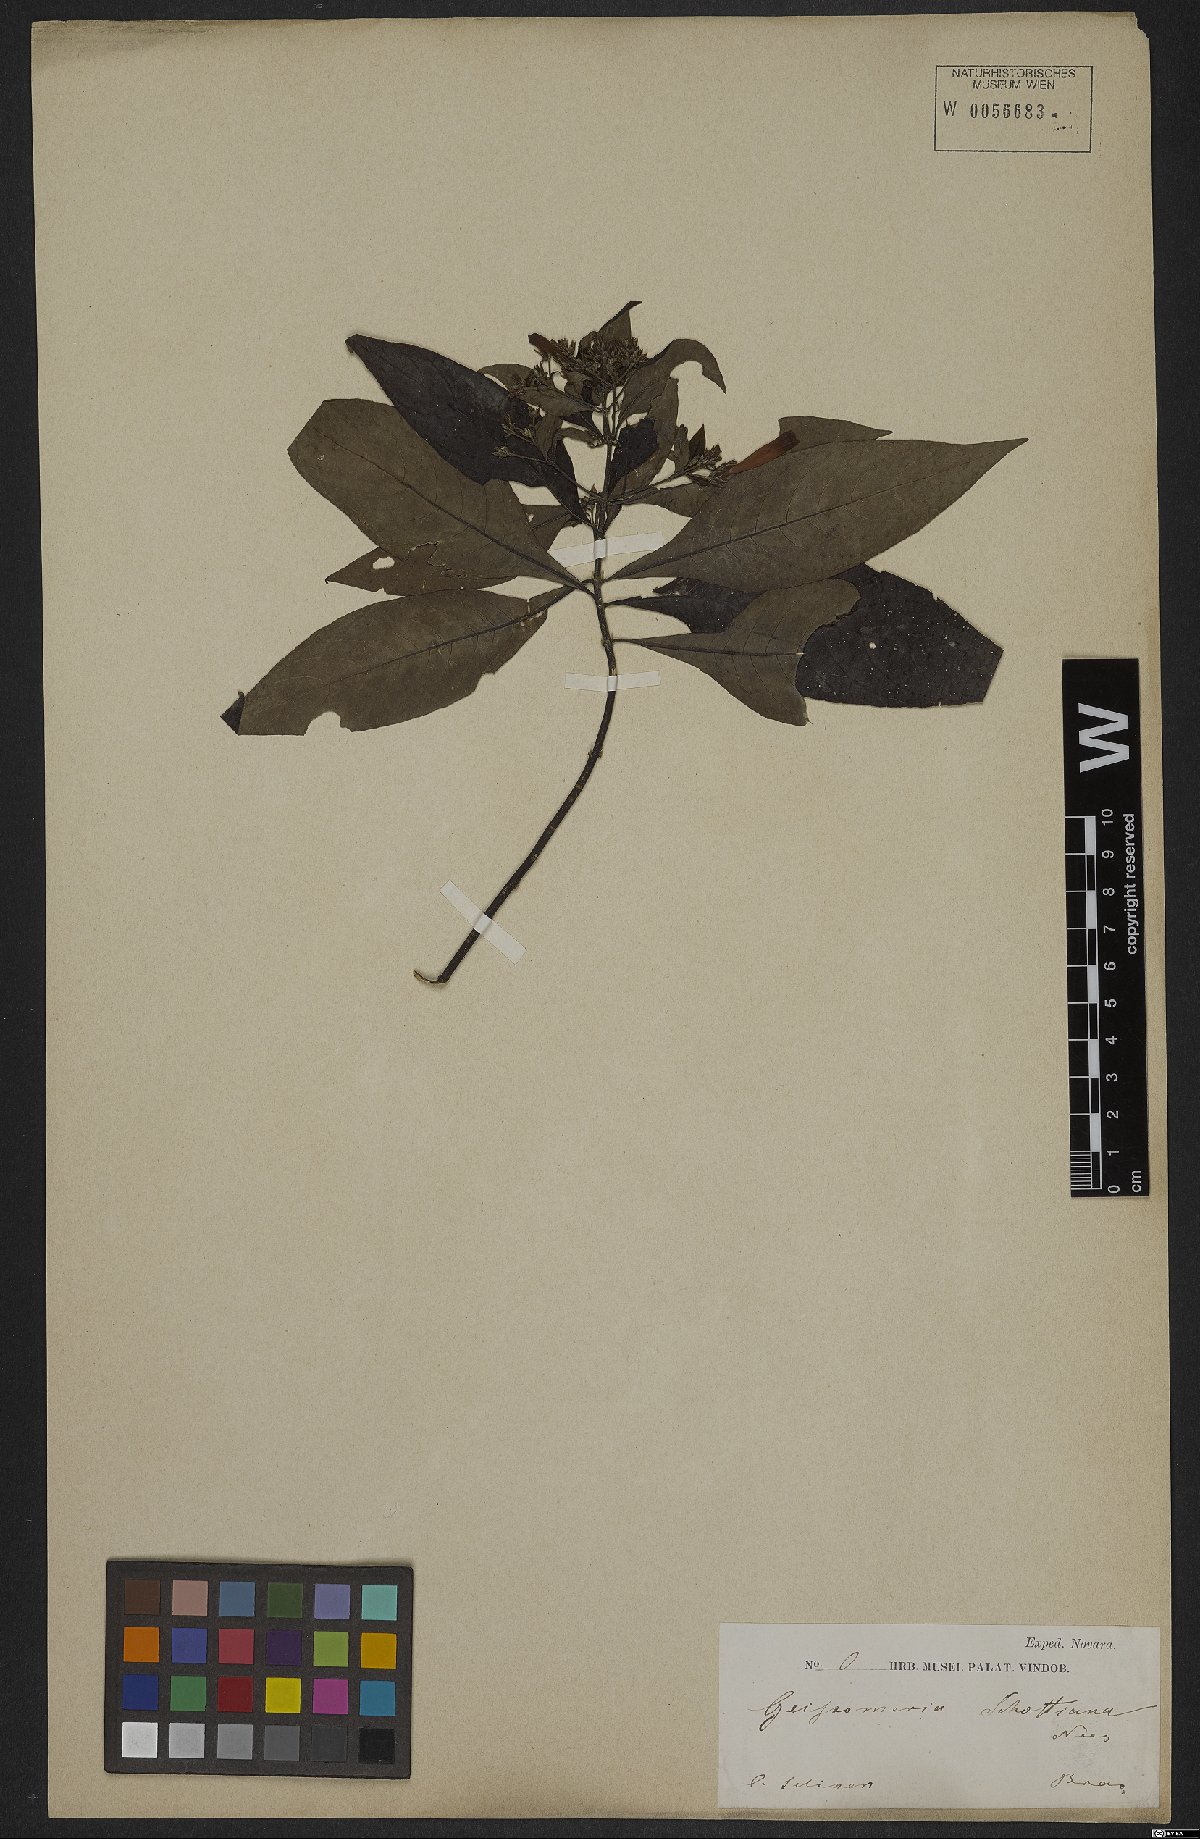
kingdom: Plantae
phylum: Tracheophyta
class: Magnoliopsida
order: Lamiales
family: Acanthaceae
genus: Aphelandra
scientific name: Aphelandra schottiana
